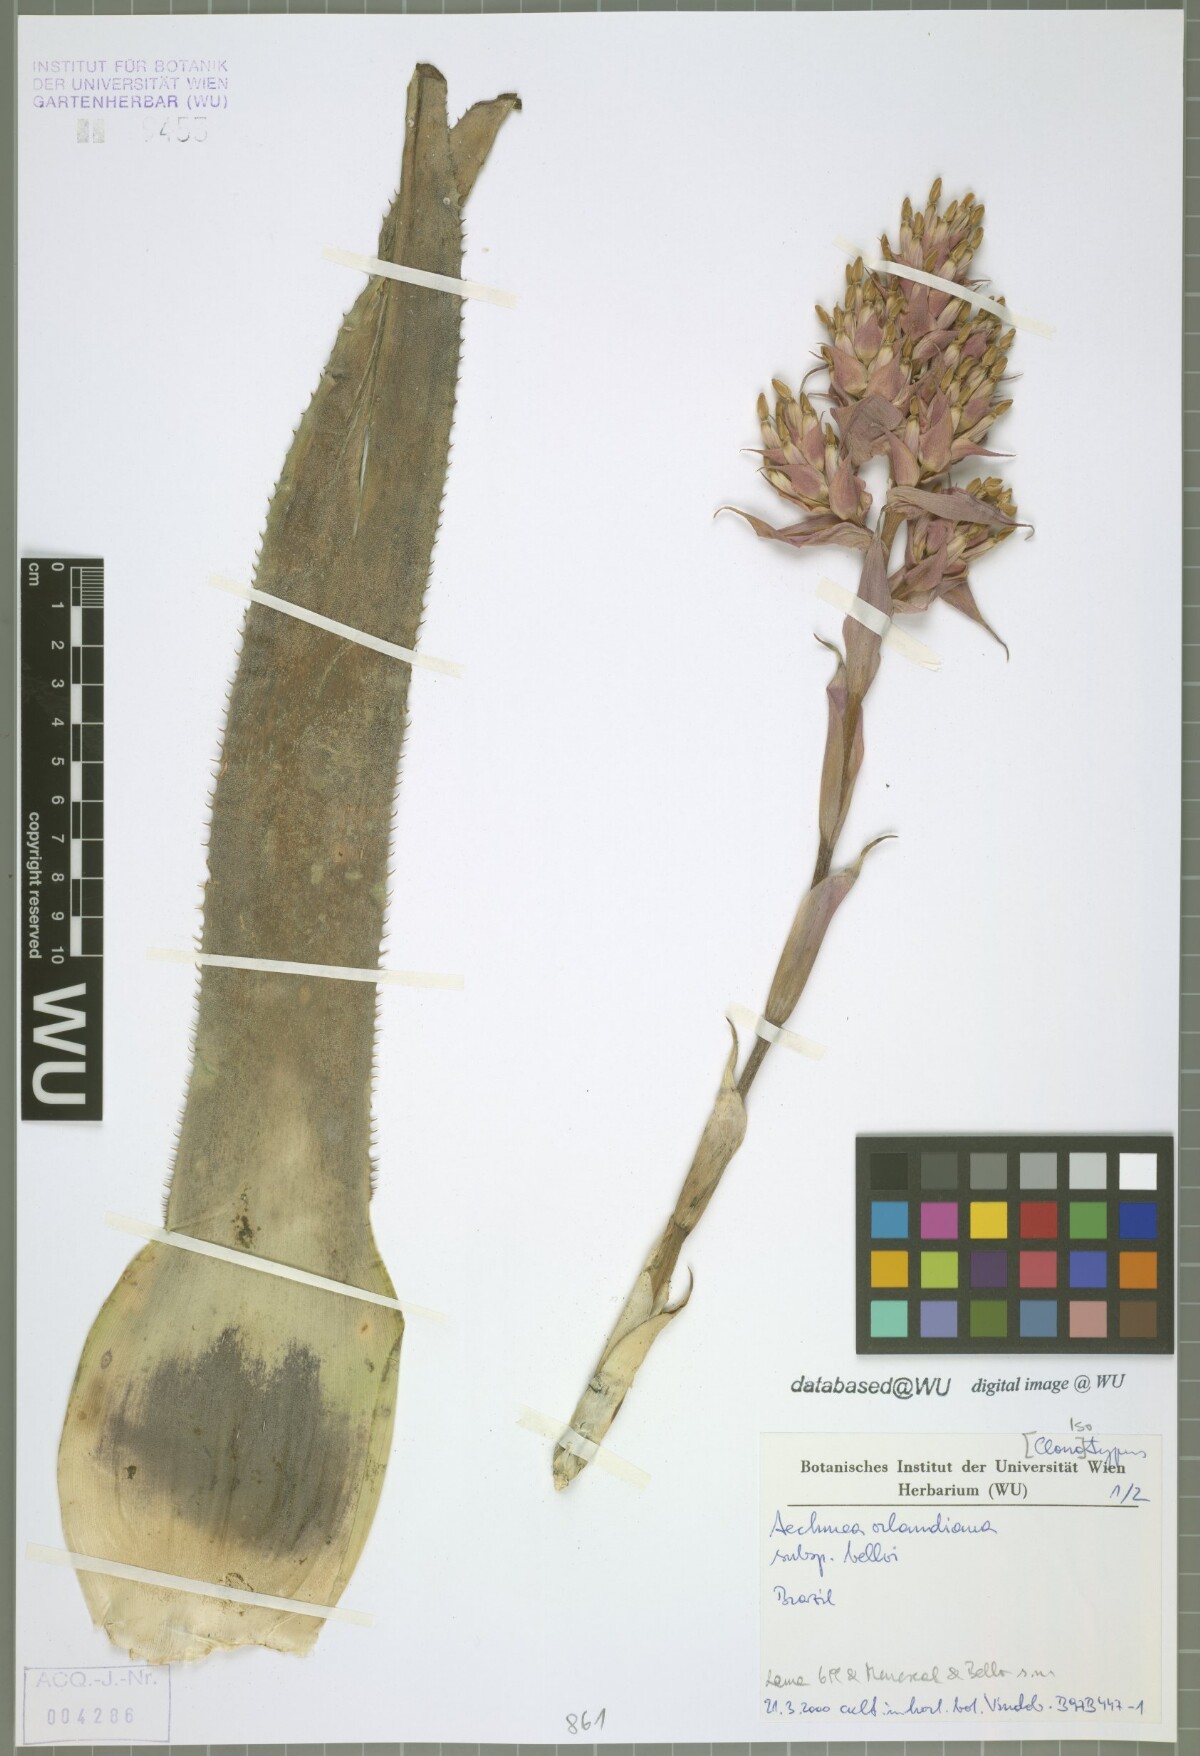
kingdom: Plantae
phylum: Tracheophyta
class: Liliopsida
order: Poales
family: Bromeliaceae
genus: Aechmea
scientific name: Aechmea orlandiana
